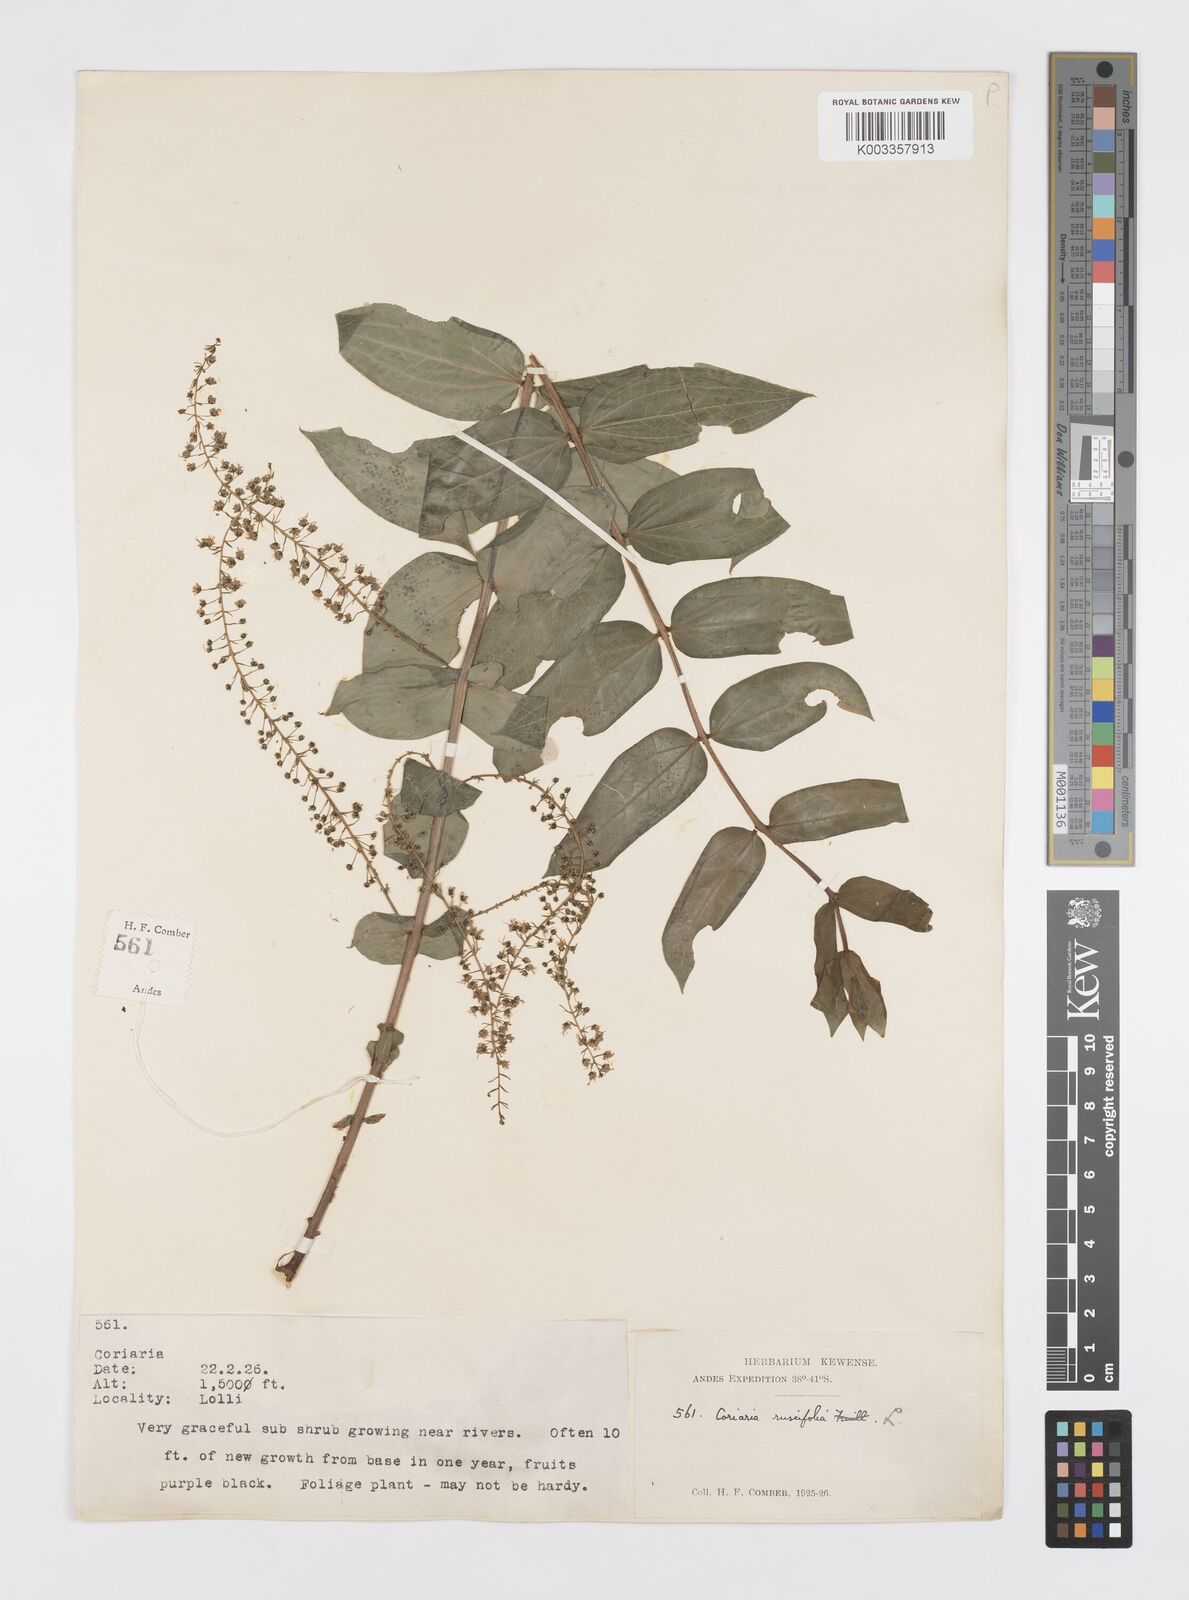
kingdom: Plantae
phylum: Tracheophyta
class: Magnoliopsida
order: Cucurbitales
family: Coriariaceae
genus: Coriaria
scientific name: Coriaria ruscifolia
